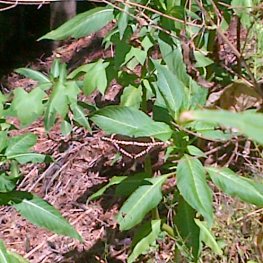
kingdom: Animalia
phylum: Arthropoda
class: Insecta
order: Lepidoptera
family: Papilionidae
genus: Papilio
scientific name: Papilio cresphontes
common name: Eastern Giant Swallowtail
